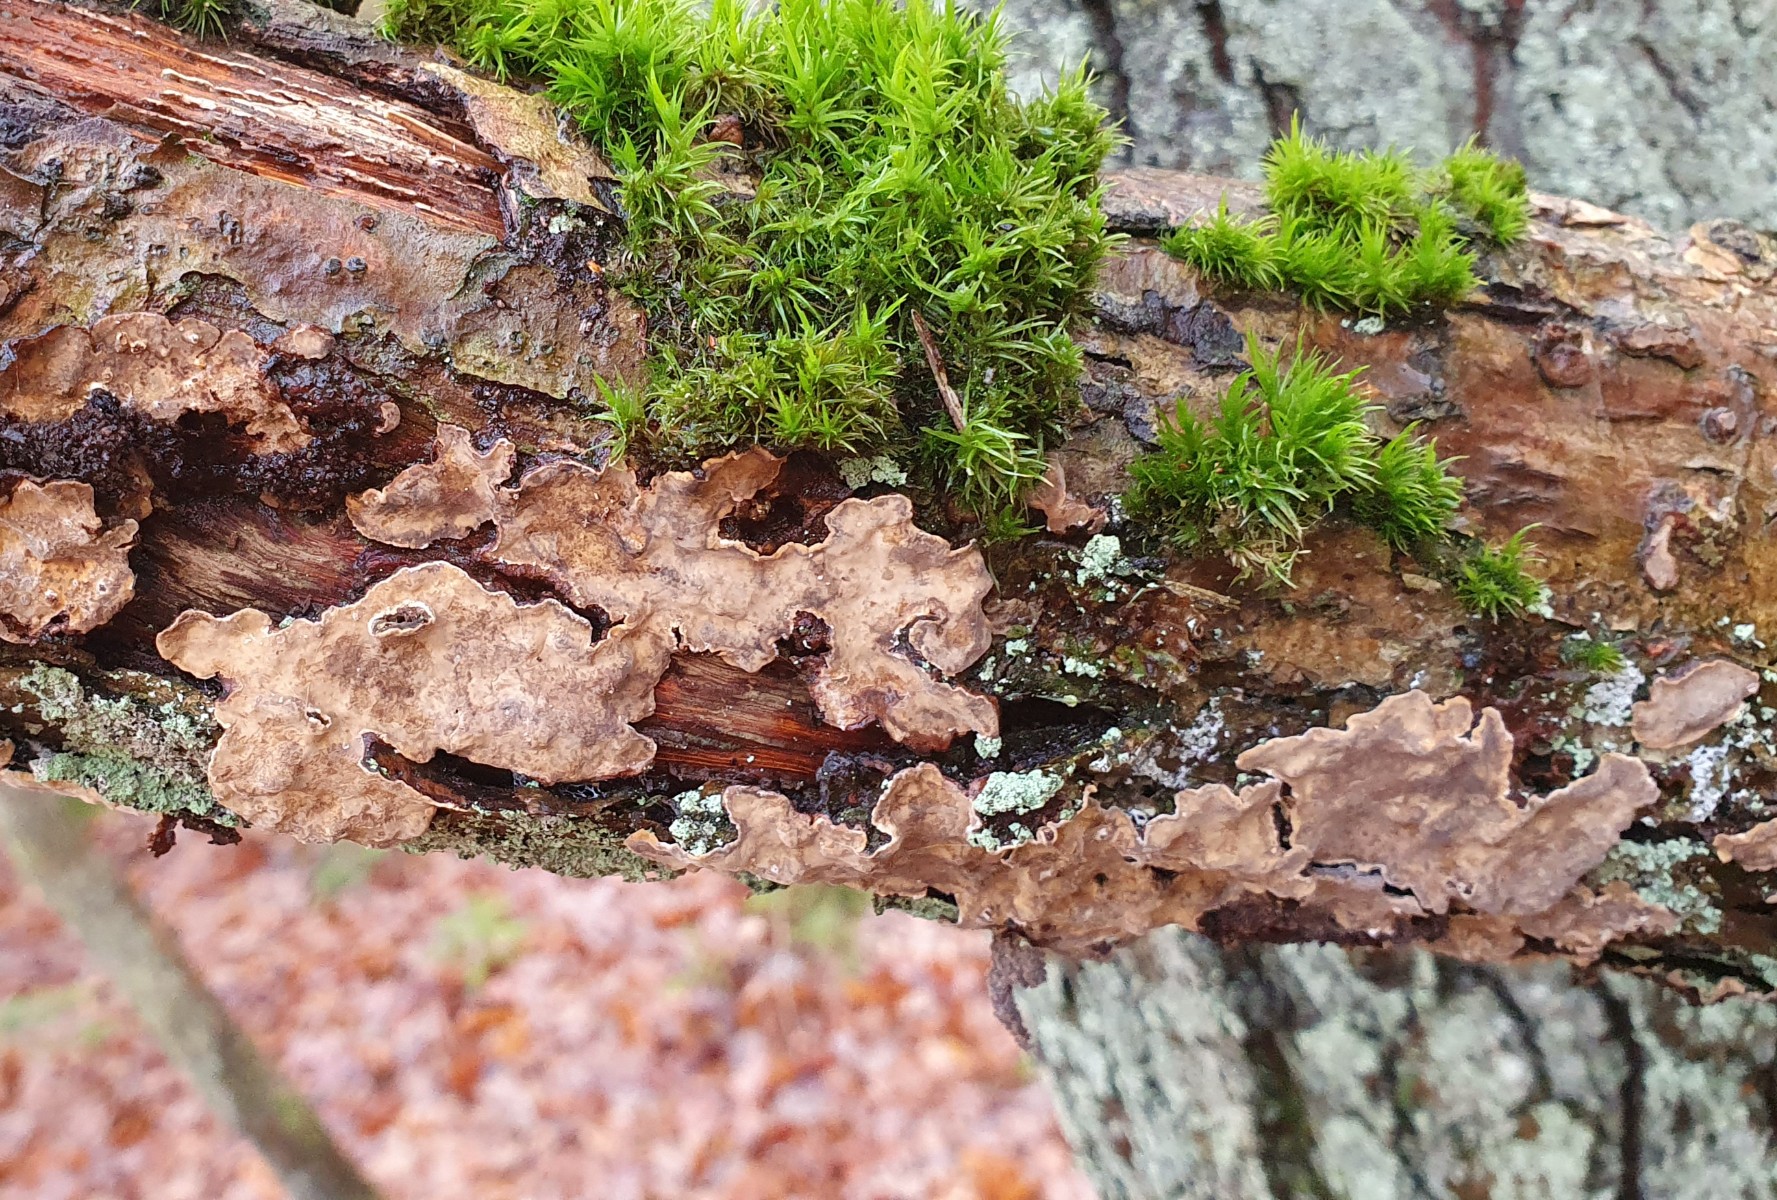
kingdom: Fungi
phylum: Basidiomycota
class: Agaricomycetes
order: Russulales
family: Stereaceae
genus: Stereum
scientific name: Stereum
